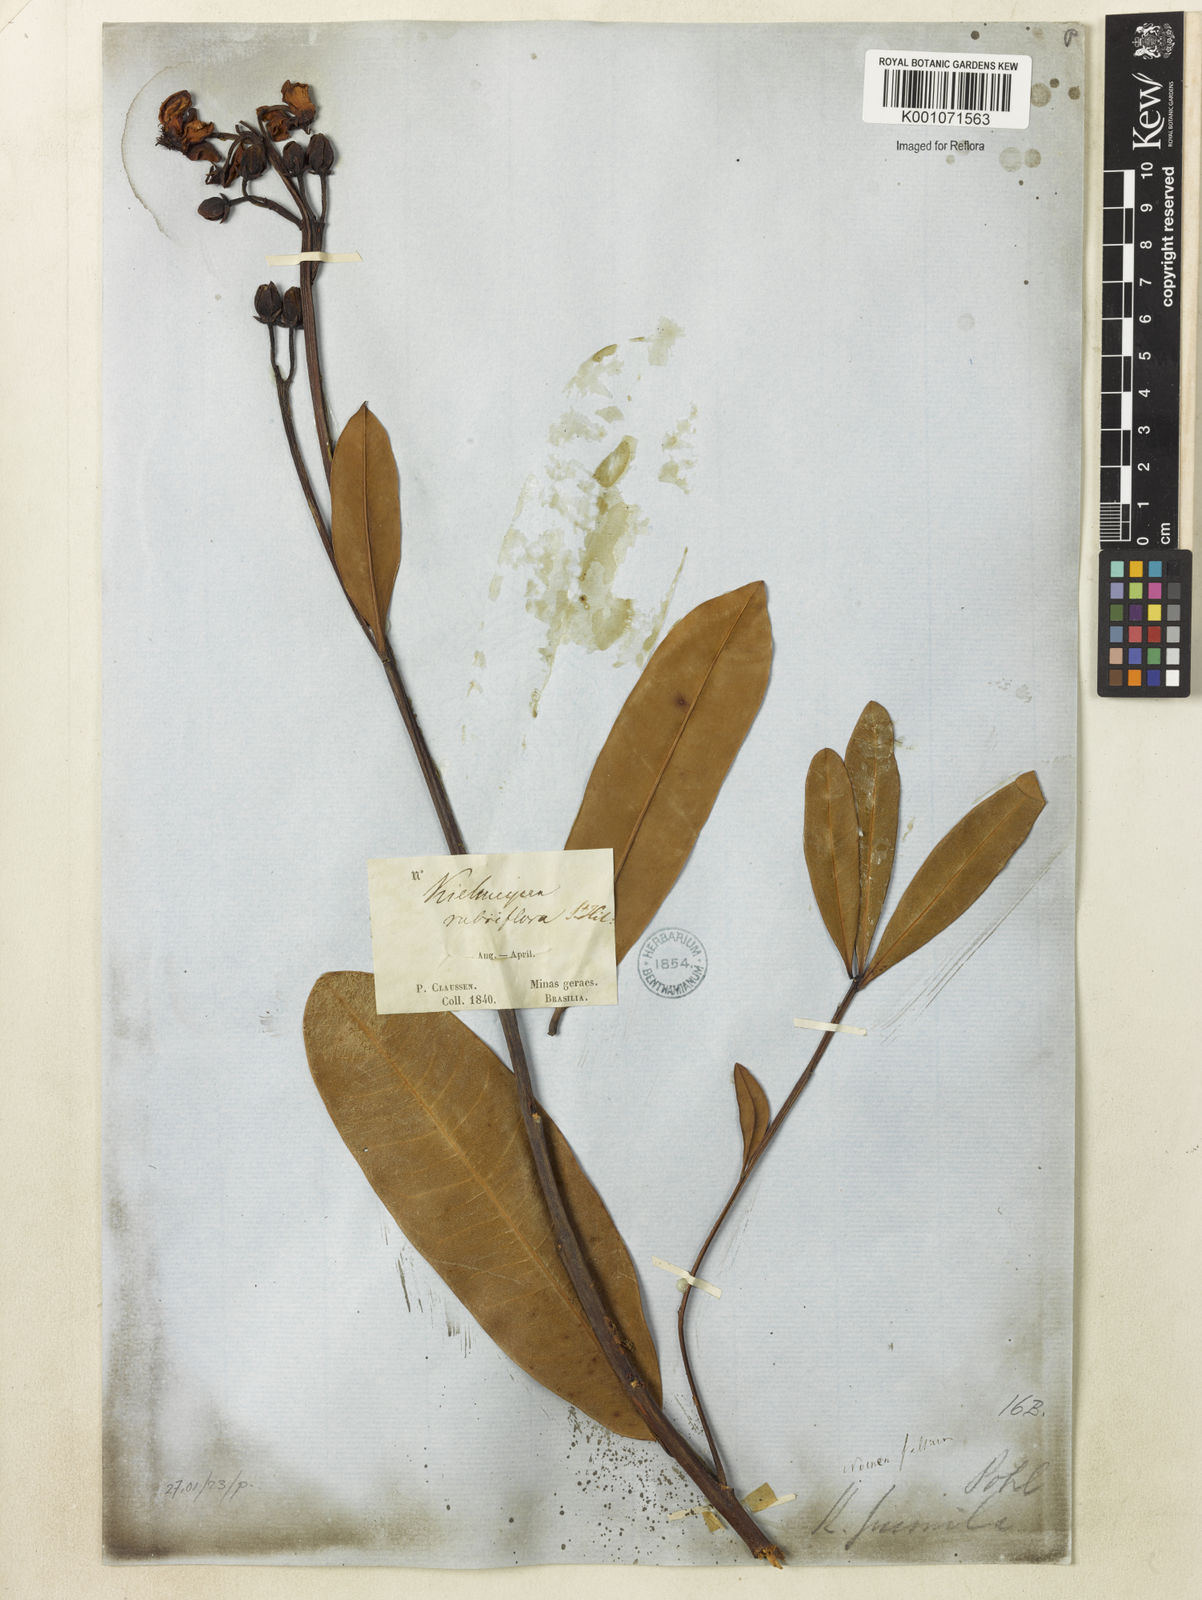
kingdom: Plantae
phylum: Tracheophyta
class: Magnoliopsida
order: Malpighiales
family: Calophyllaceae
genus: Kielmeyera
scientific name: Kielmeyera pumila
